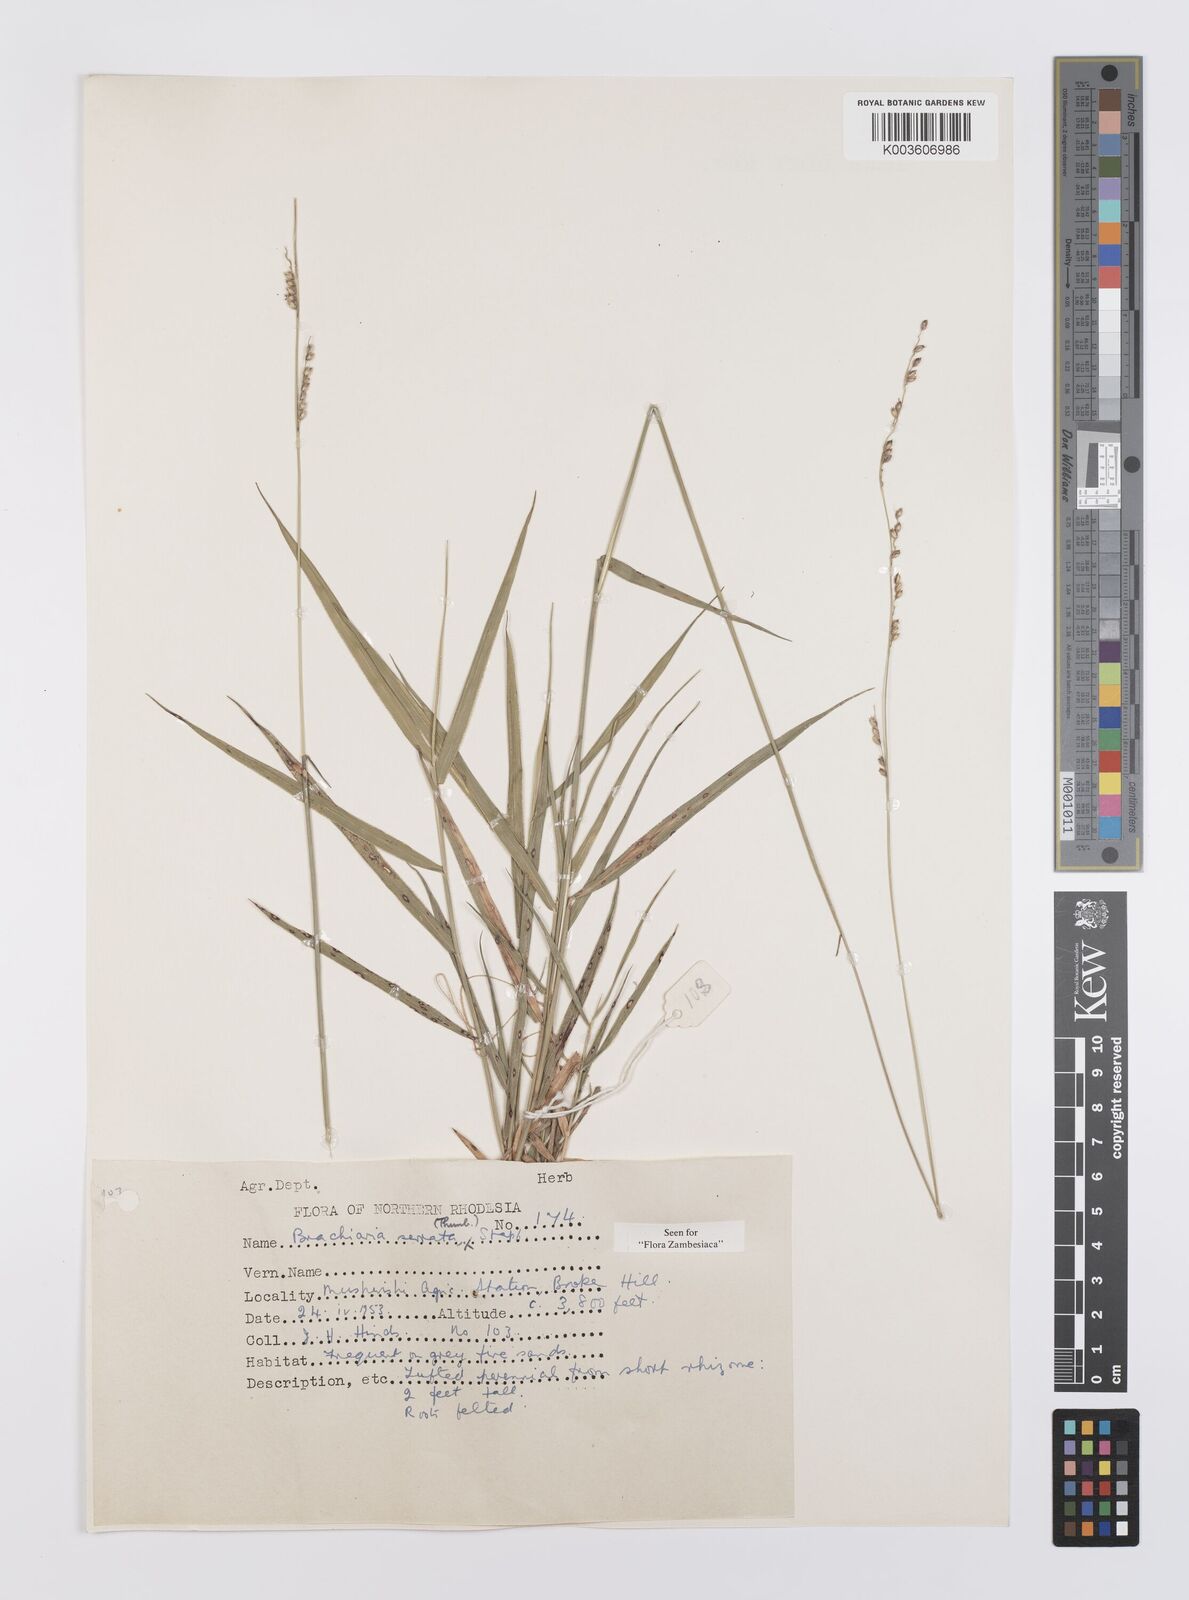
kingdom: Plantae
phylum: Tracheophyta
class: Liliopsida
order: Poales
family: Poaceae
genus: Urochloa
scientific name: Urochloa serrata
